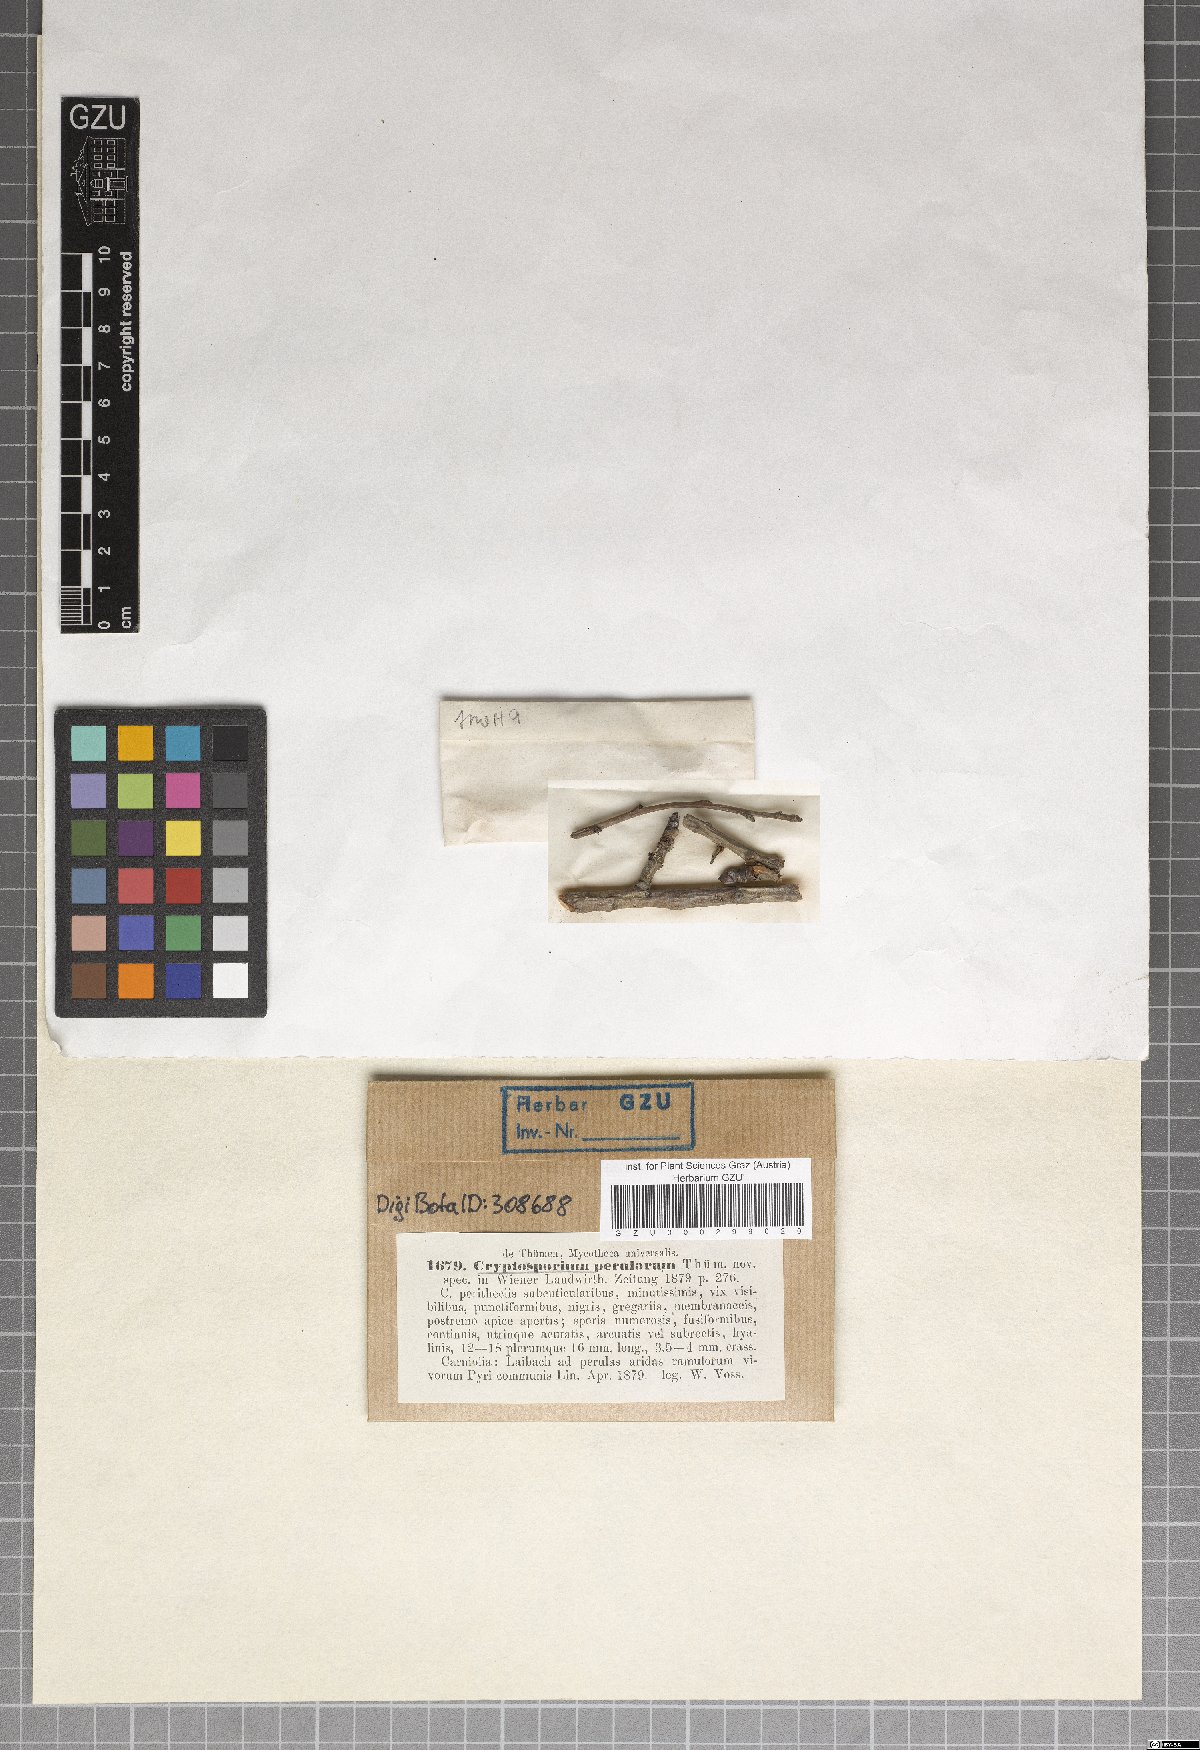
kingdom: Fungi
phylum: Ascomycota
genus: Cryptosporium
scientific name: Cryptosporium
